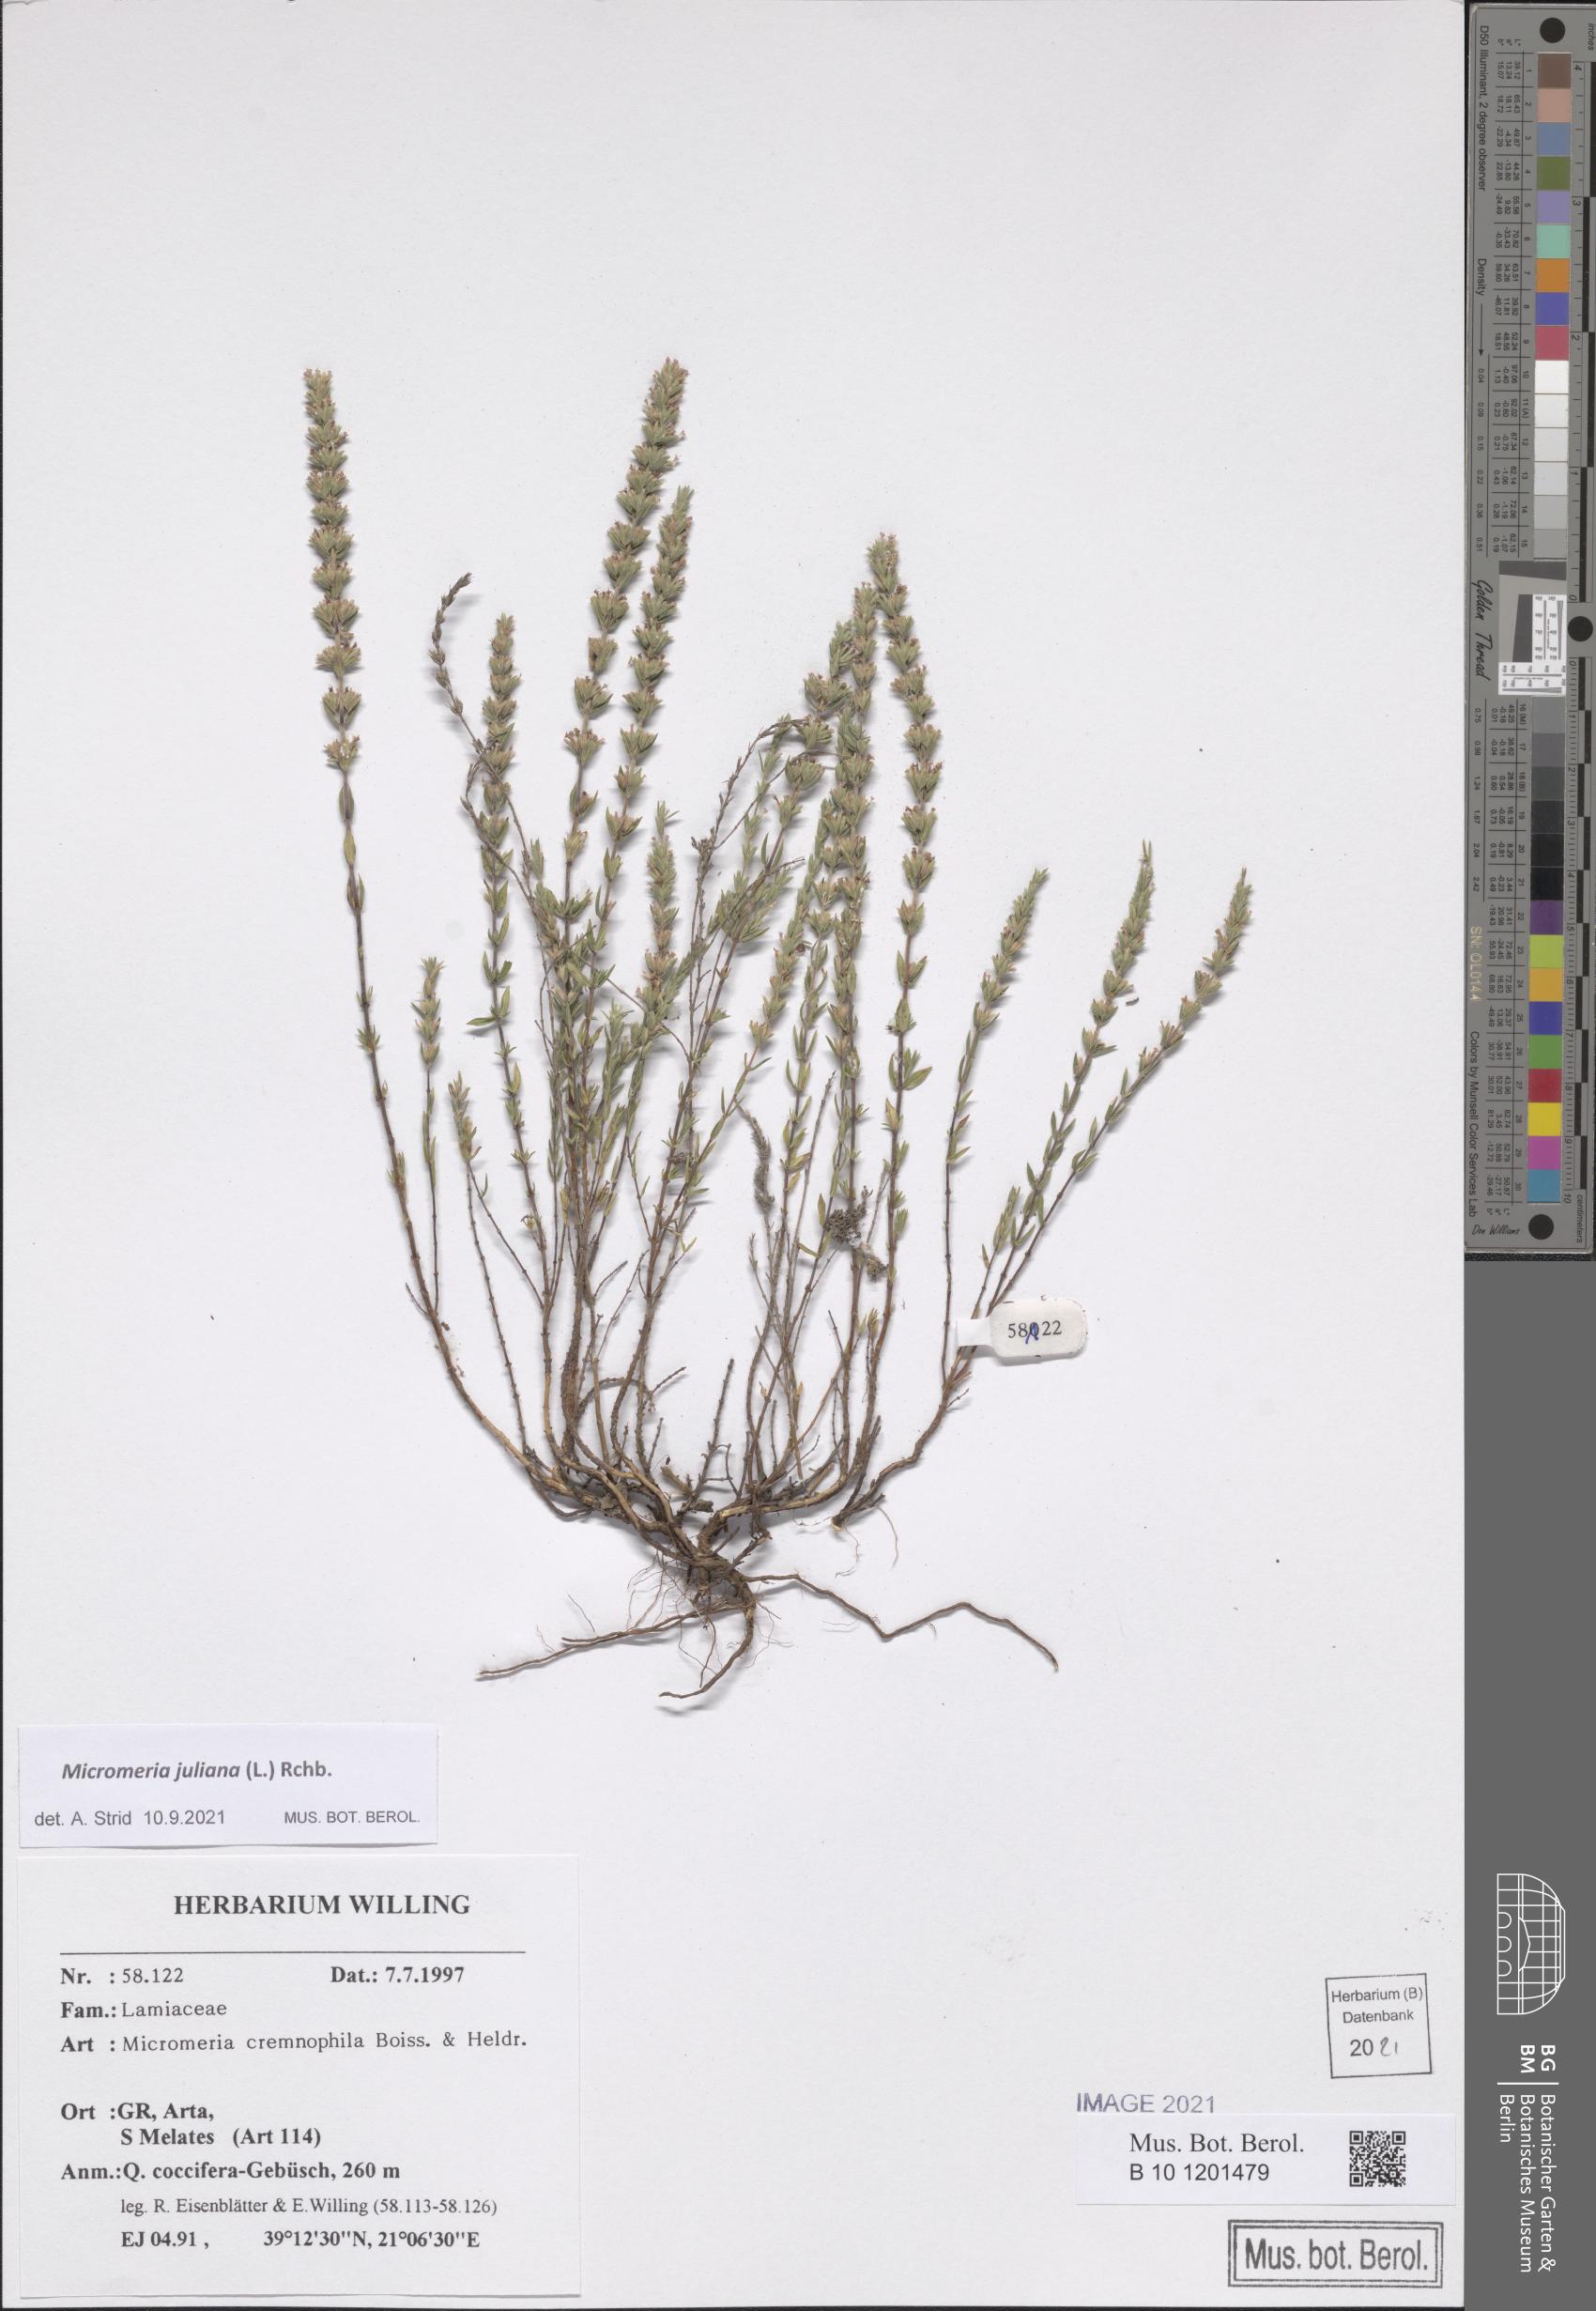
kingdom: Plantae
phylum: Tracheophyta
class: Magnoliopsida
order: Lamiales
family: Lamiaceae
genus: Micromeria
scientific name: Micromeria juliana
